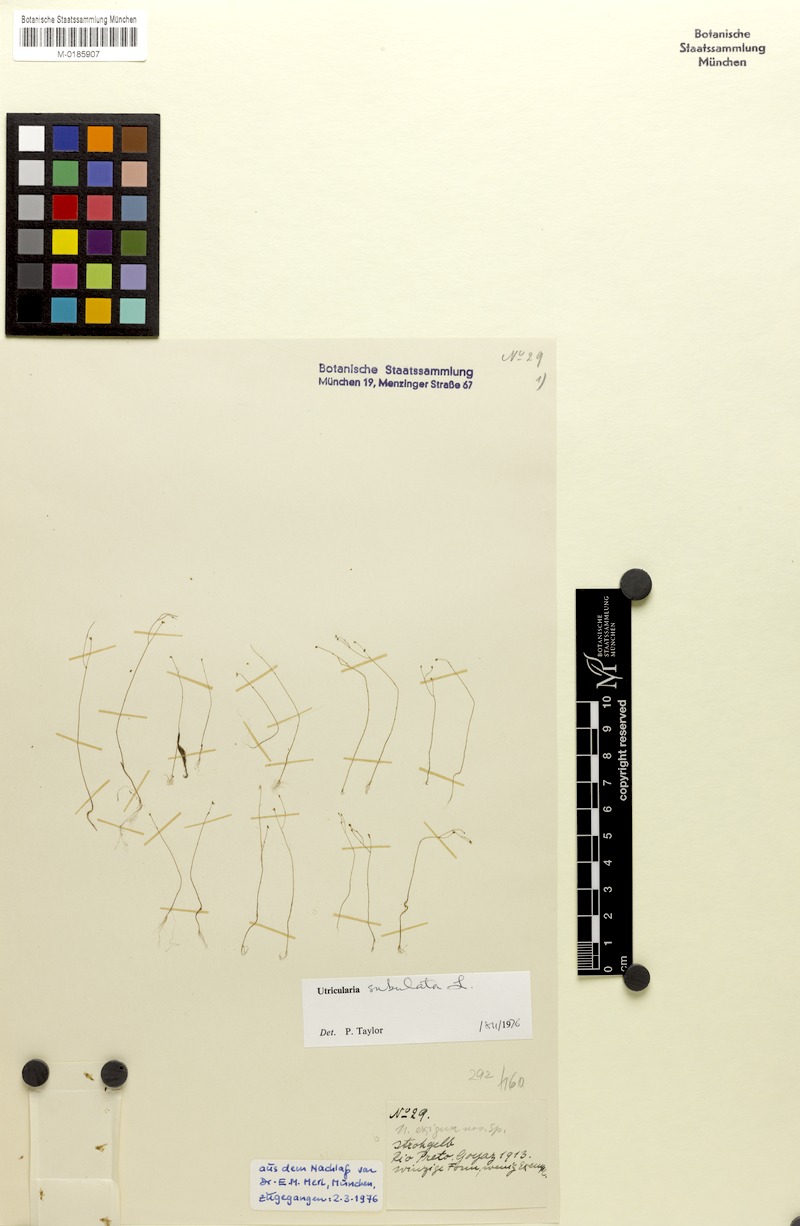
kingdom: Plantae
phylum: Tracheophyta
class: Magnoliopsida
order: Lamiales
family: Lentibulariaceae
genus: Utricularia
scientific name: Utricularia subulata
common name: Tiny bladderwort
